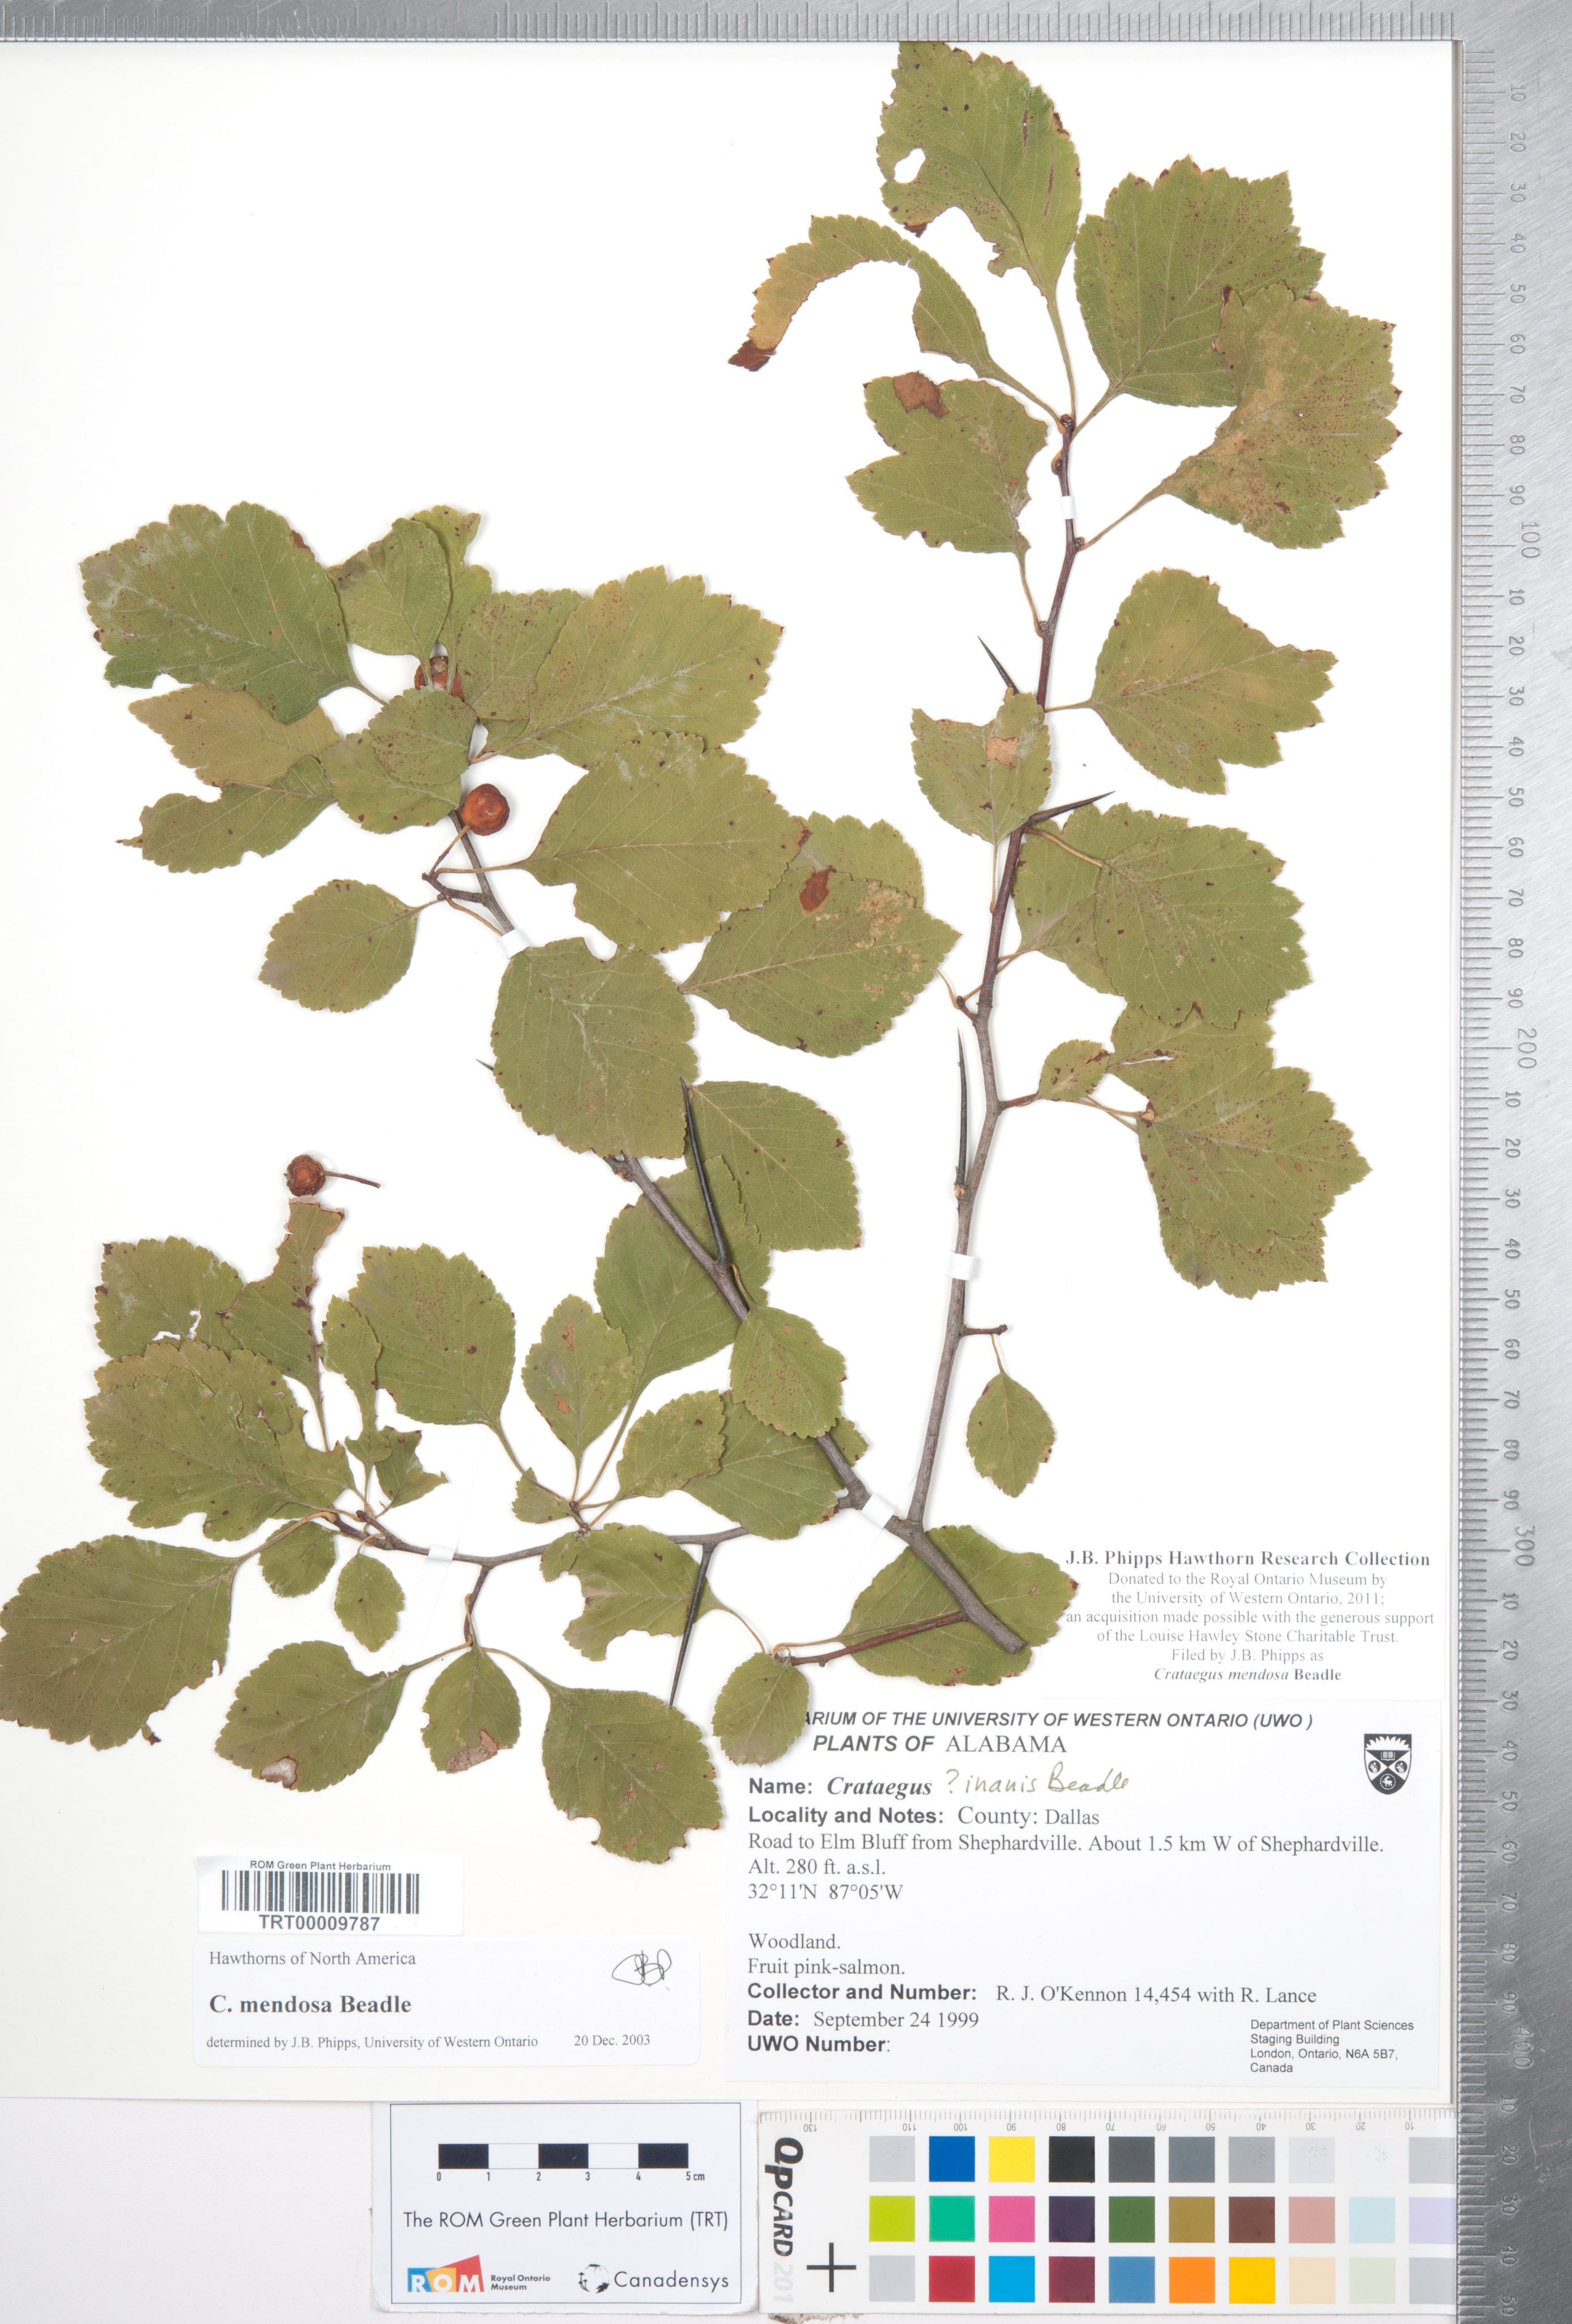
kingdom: Plantae
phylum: Tracheophyta
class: Magnoliopsida
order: Rosales
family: Rosaceae
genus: Crataegus
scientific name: Crataegus pulcherrima
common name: Beautiful hawthorn
